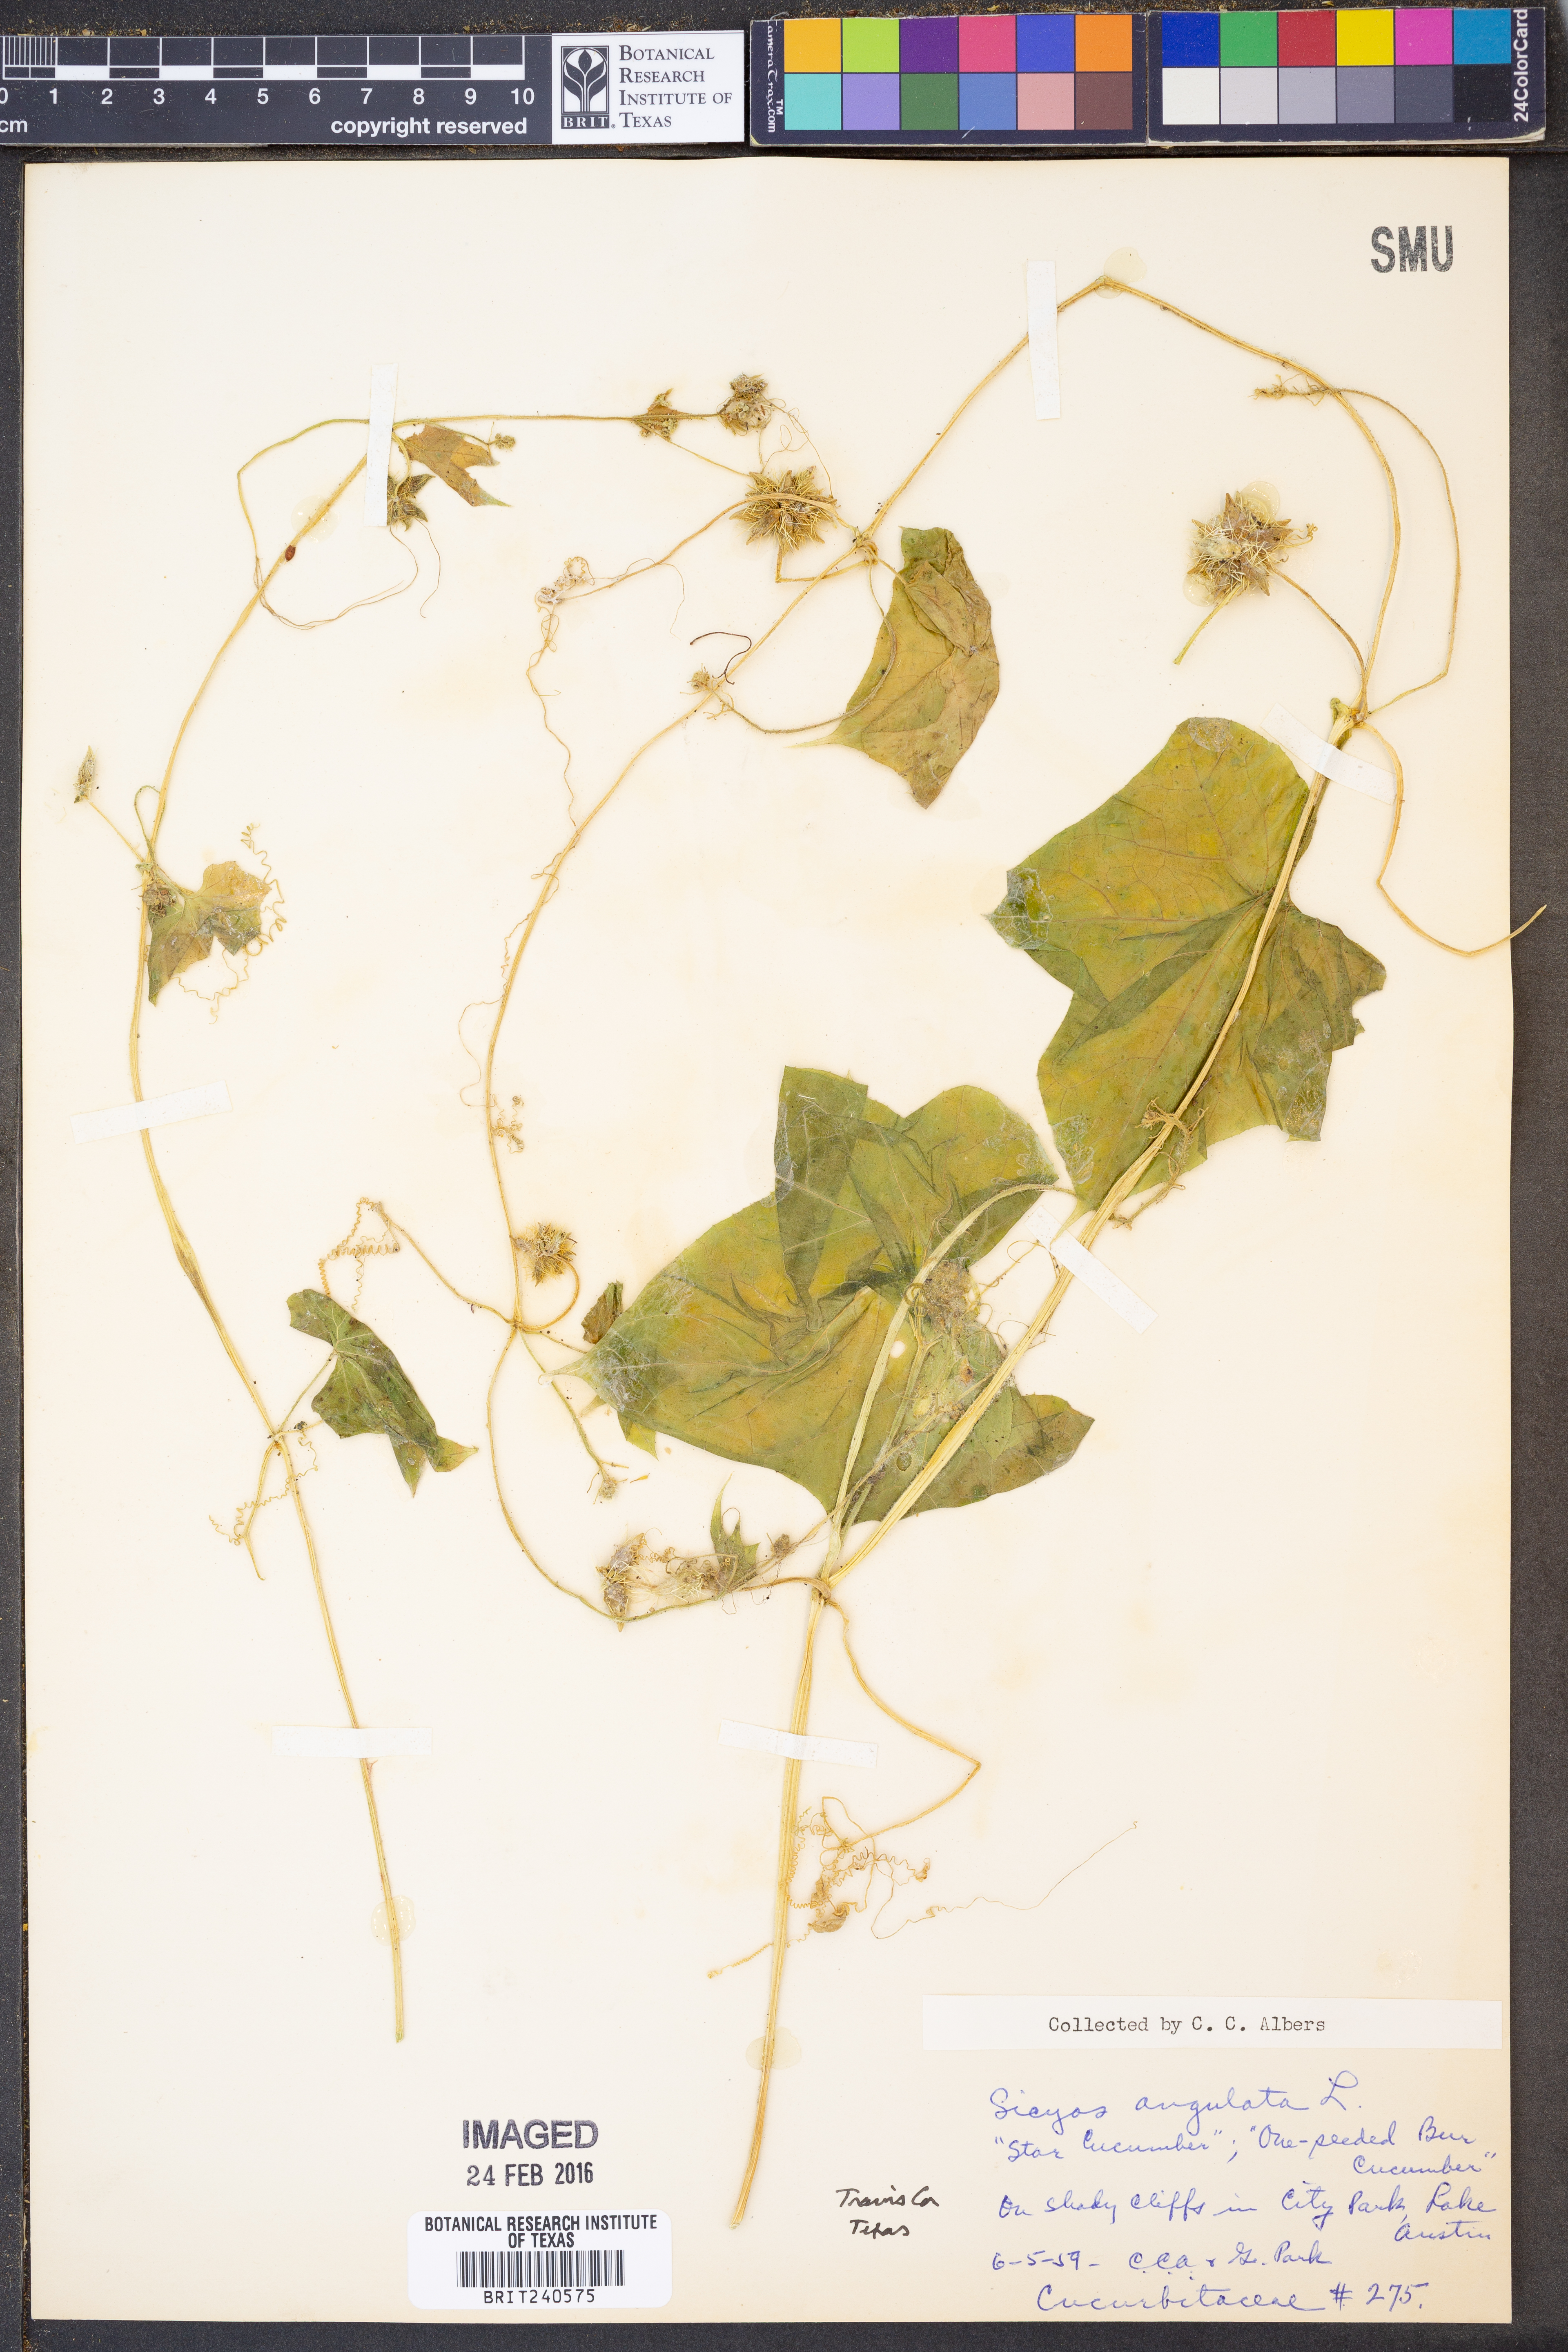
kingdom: Plantae
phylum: Tracheophyta
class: Magnoliopsida
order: Cucurbitales
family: Cucurbitaceae
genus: Sicyos
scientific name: Sicyos angulatus
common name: Angled burr cucumber
